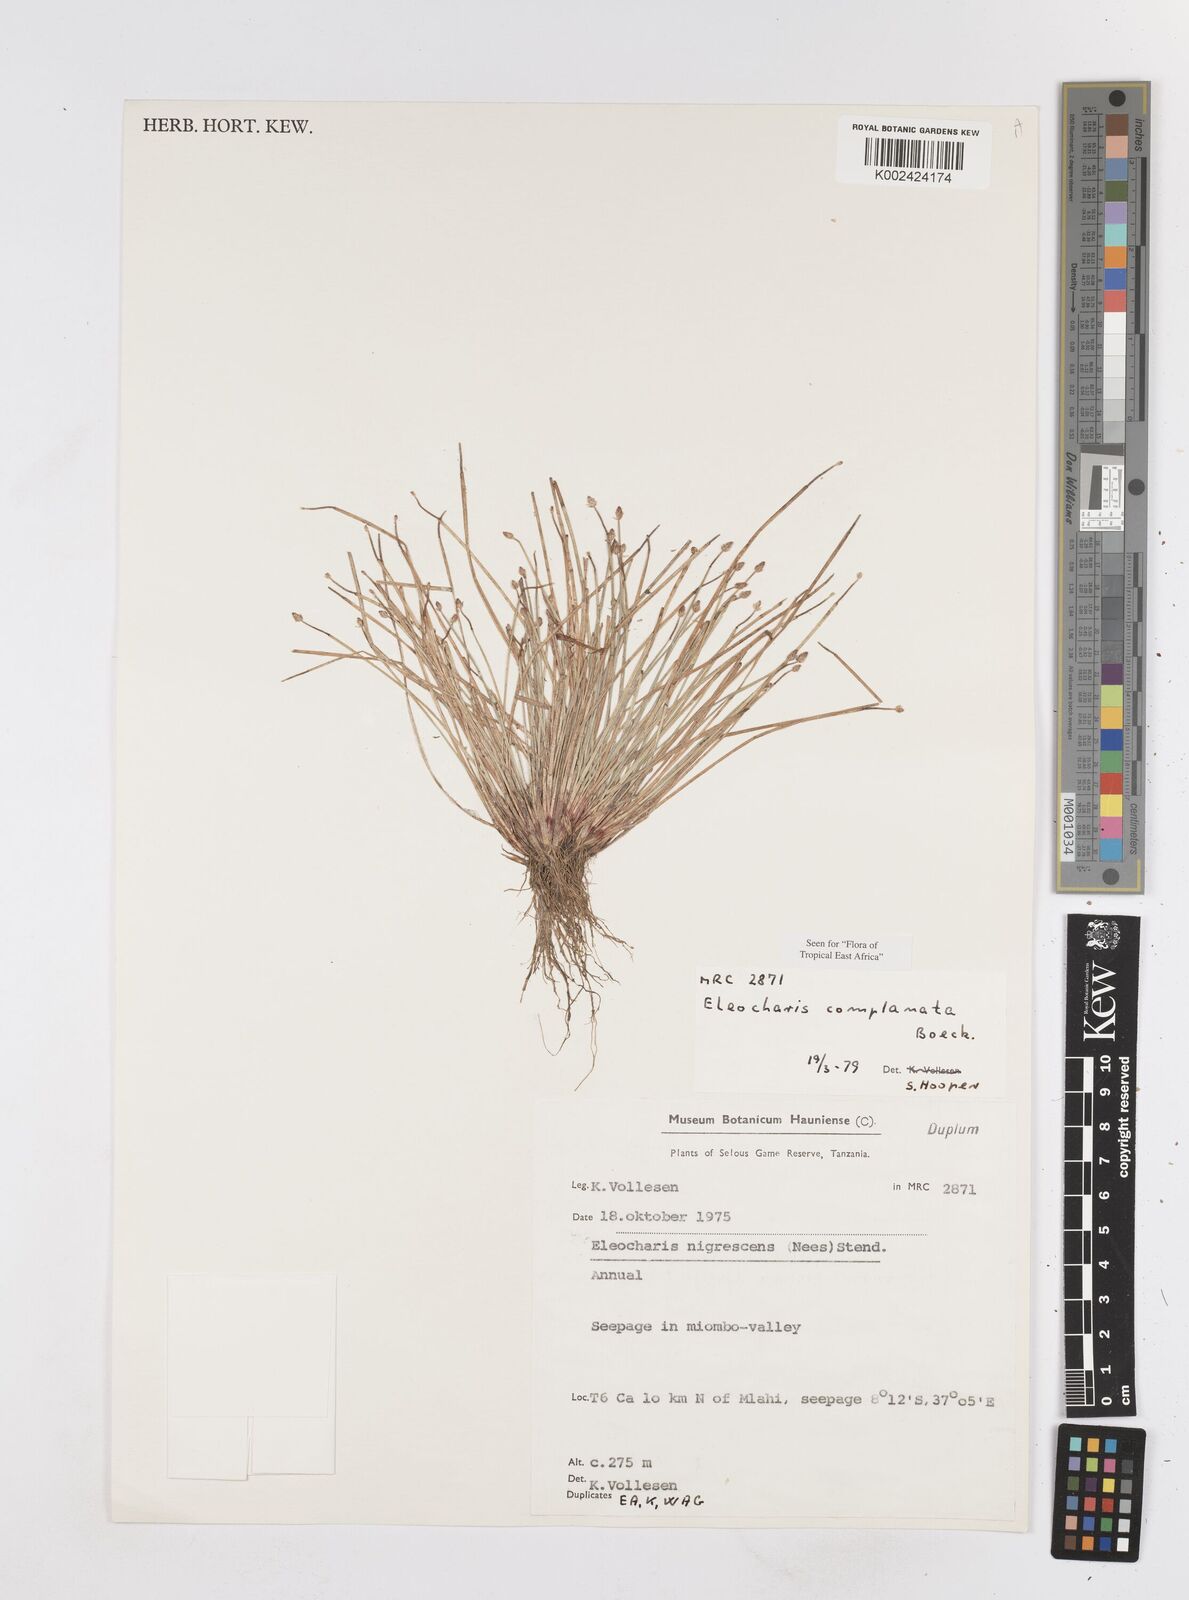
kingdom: Plantae
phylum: Tracheophyta
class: Liliopsida
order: Poales
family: Cyperaceae
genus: Eleocharis
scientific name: Eleocharis complanata
